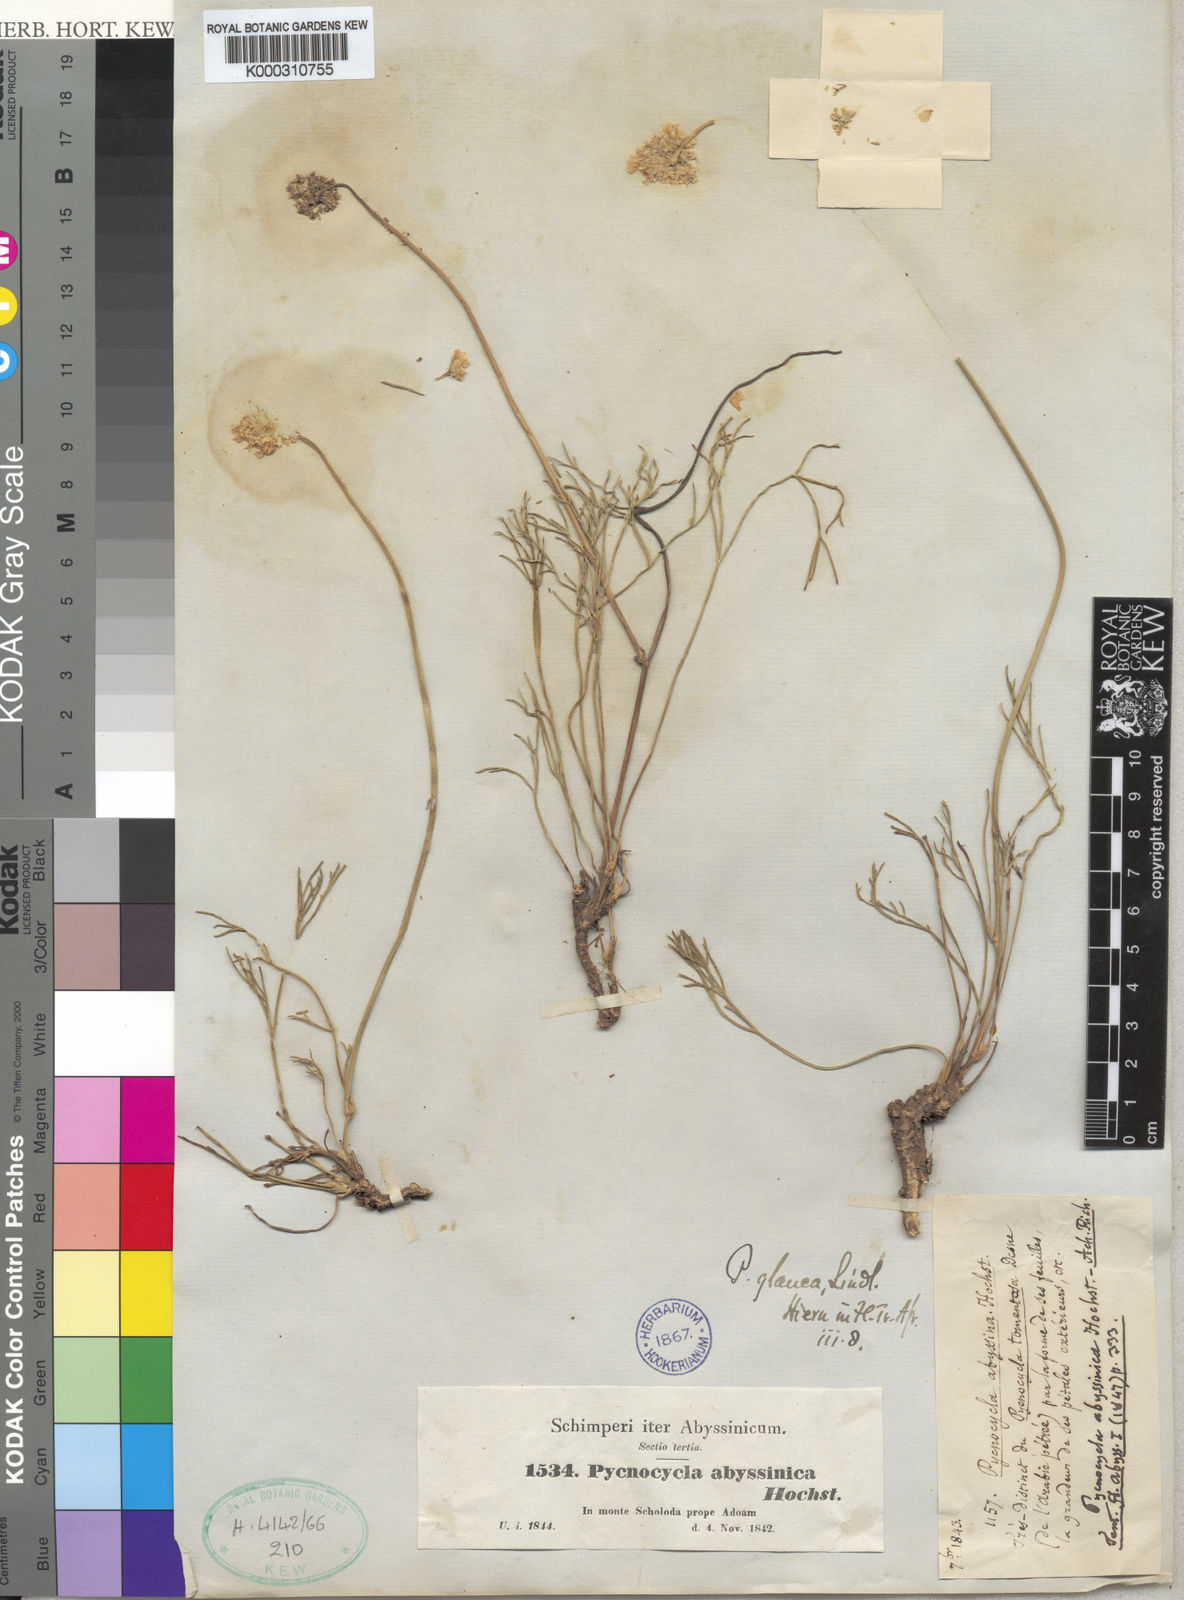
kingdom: Plantae
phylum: Tracheophyta
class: Magnoliopsida
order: Apiales
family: Apiaceae
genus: Pycnocycla
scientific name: Pycnocycla glauca
